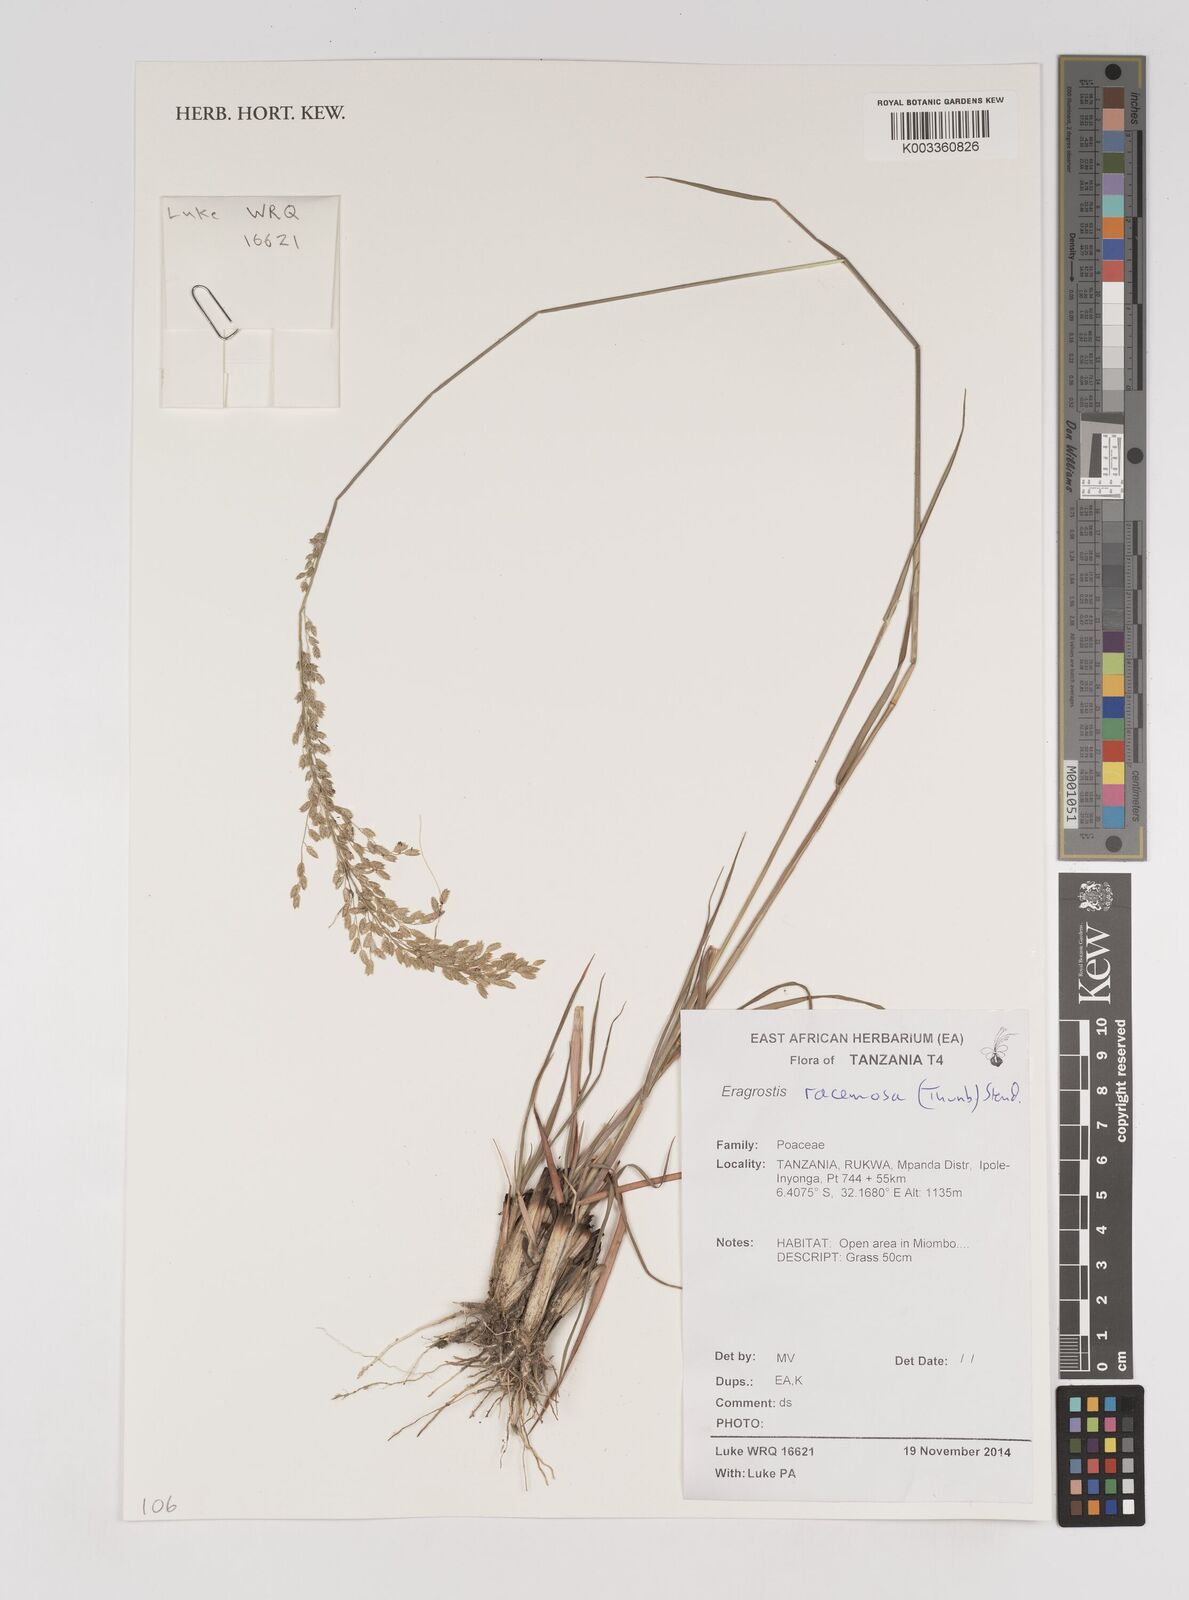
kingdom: Plantae
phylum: Tracheophyta
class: Liliopsida
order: Poales
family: Poaceae
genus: Eragrostis
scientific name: Eragrostis racemosa
